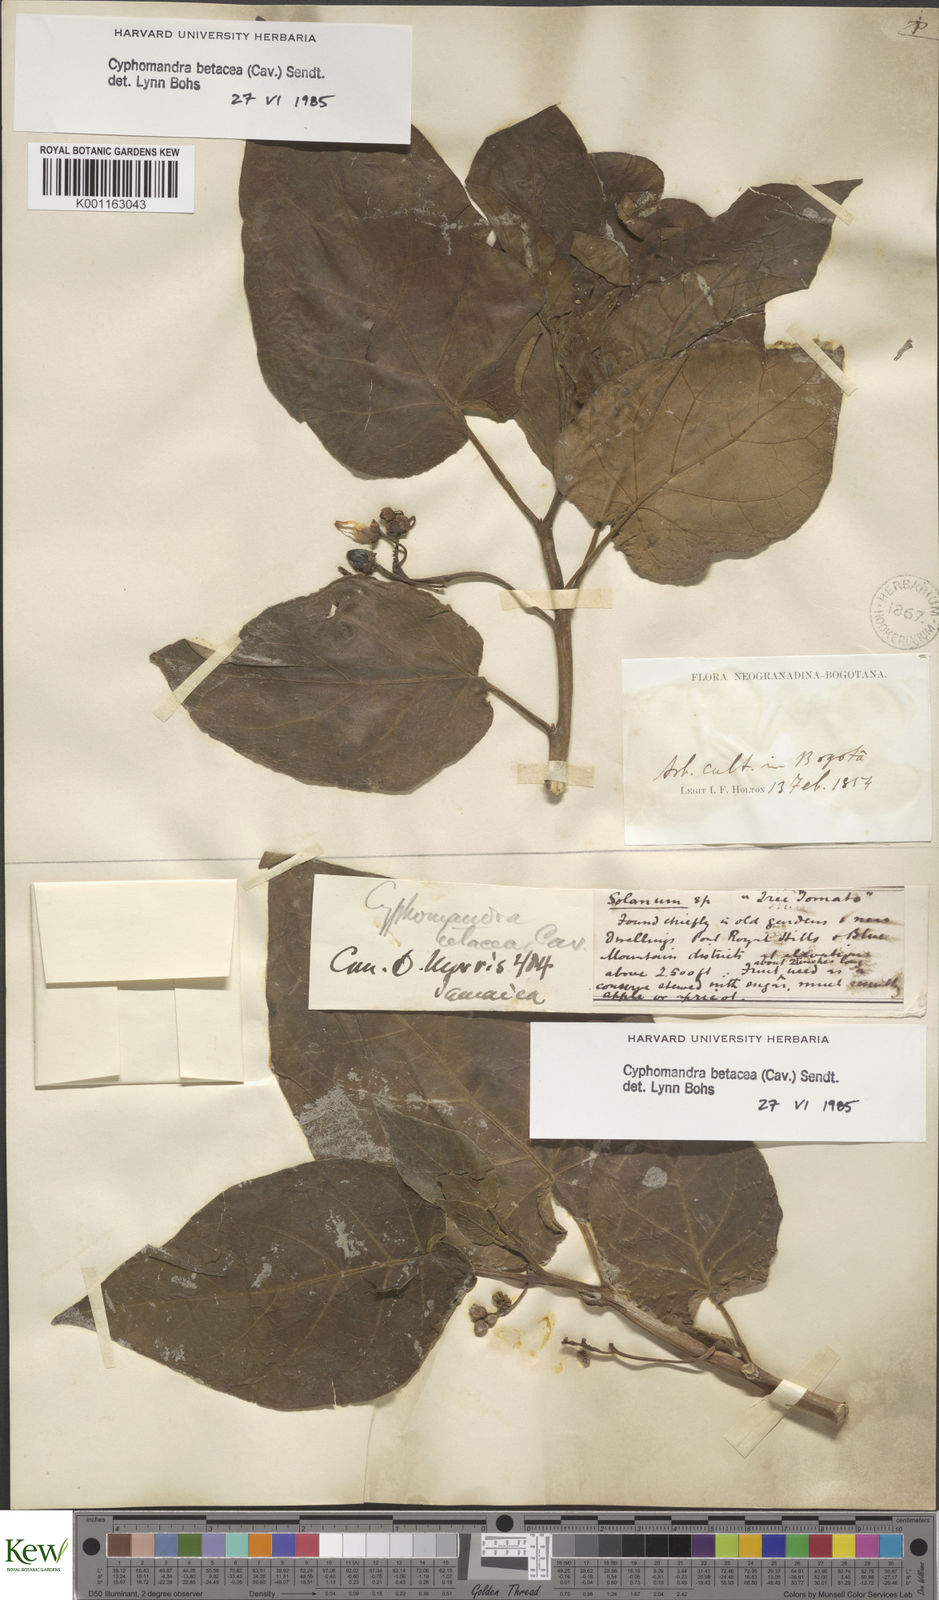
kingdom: Plantae
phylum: Tracheophyta
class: Magnoliopsida
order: Solanales
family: Solanaceae
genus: Solanum
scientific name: Solanum betaceum
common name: Tamarillo
